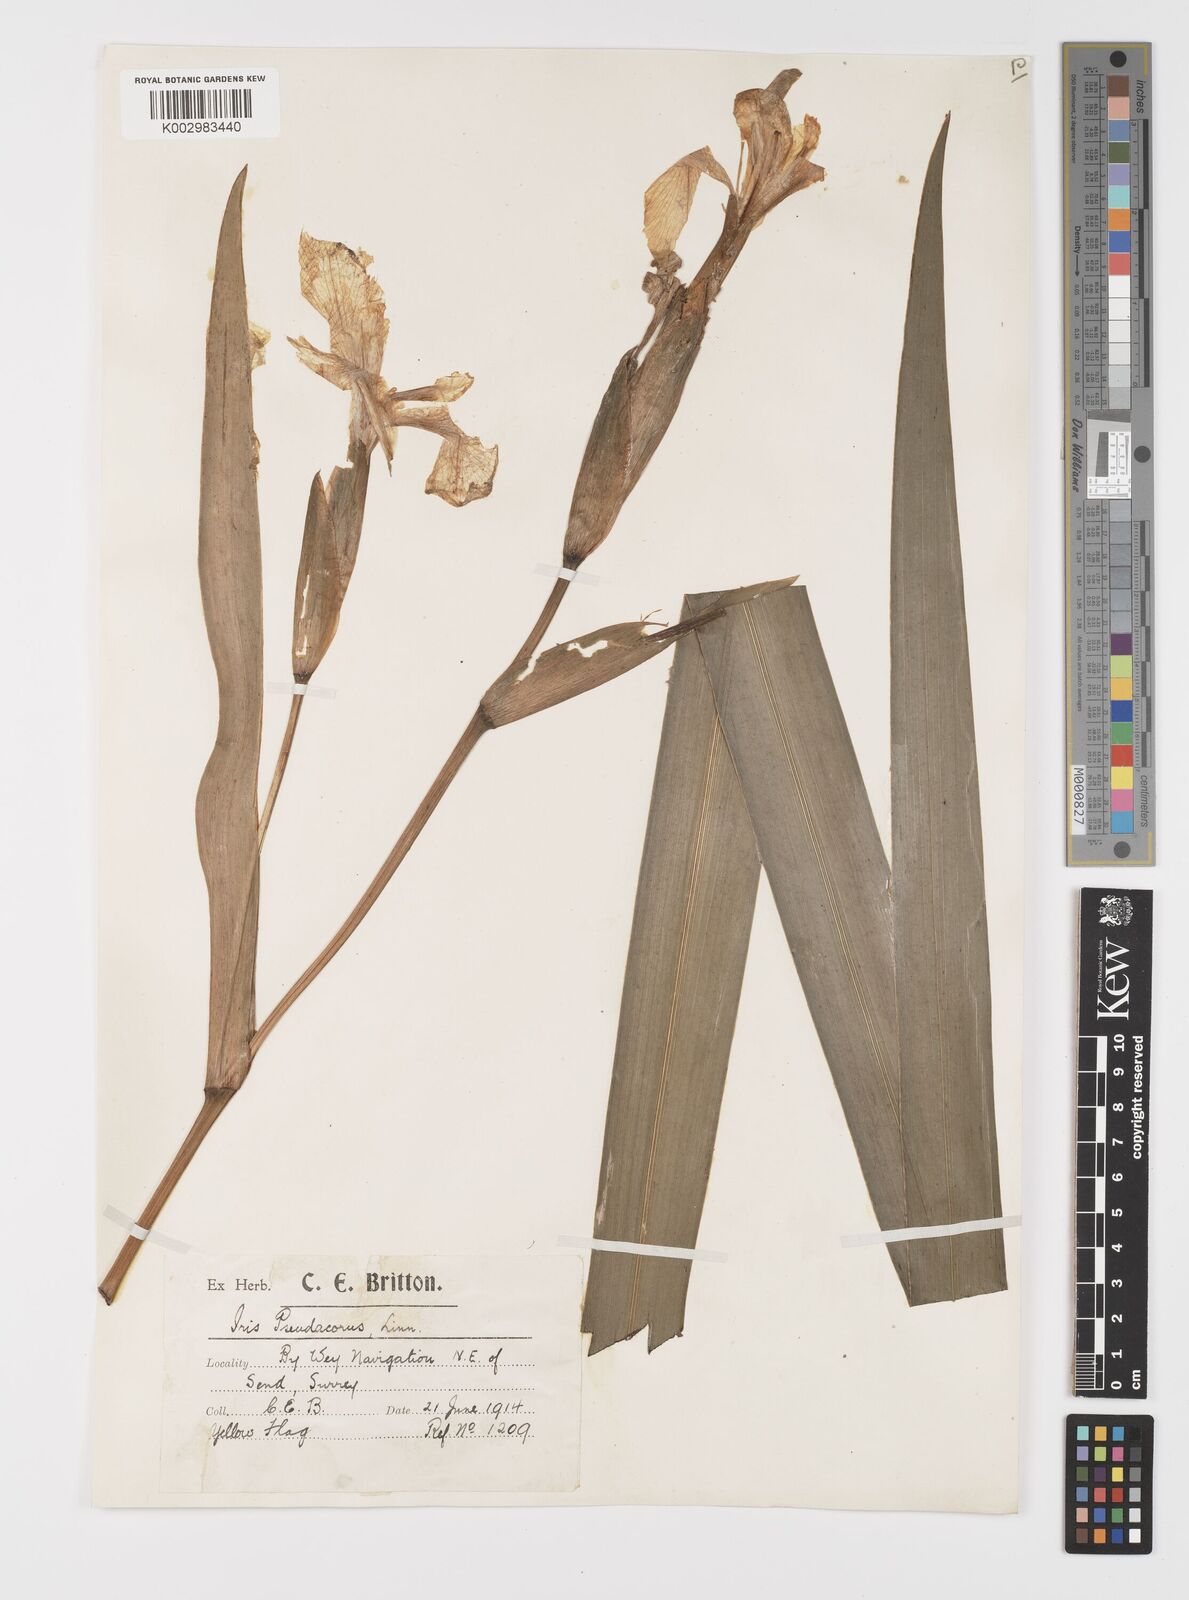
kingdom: Plantae
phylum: Tracheophyta
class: Liliopsida
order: Asparagales
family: Iridaceae
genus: Iris
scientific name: Iris pseudacorus
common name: Yellow flag
